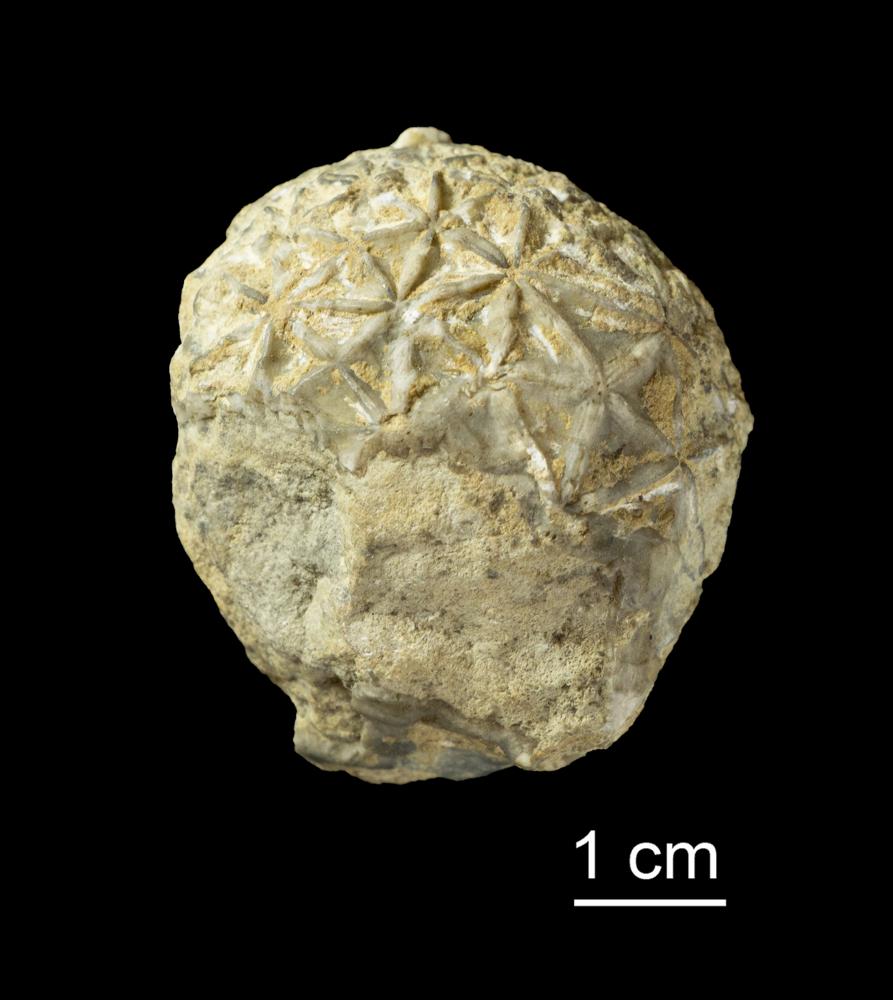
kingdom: Animalia
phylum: Echinodermata
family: Caryocystitidae
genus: Heliocrinites
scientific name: Heliocrinites Echinosphaerites balticus
